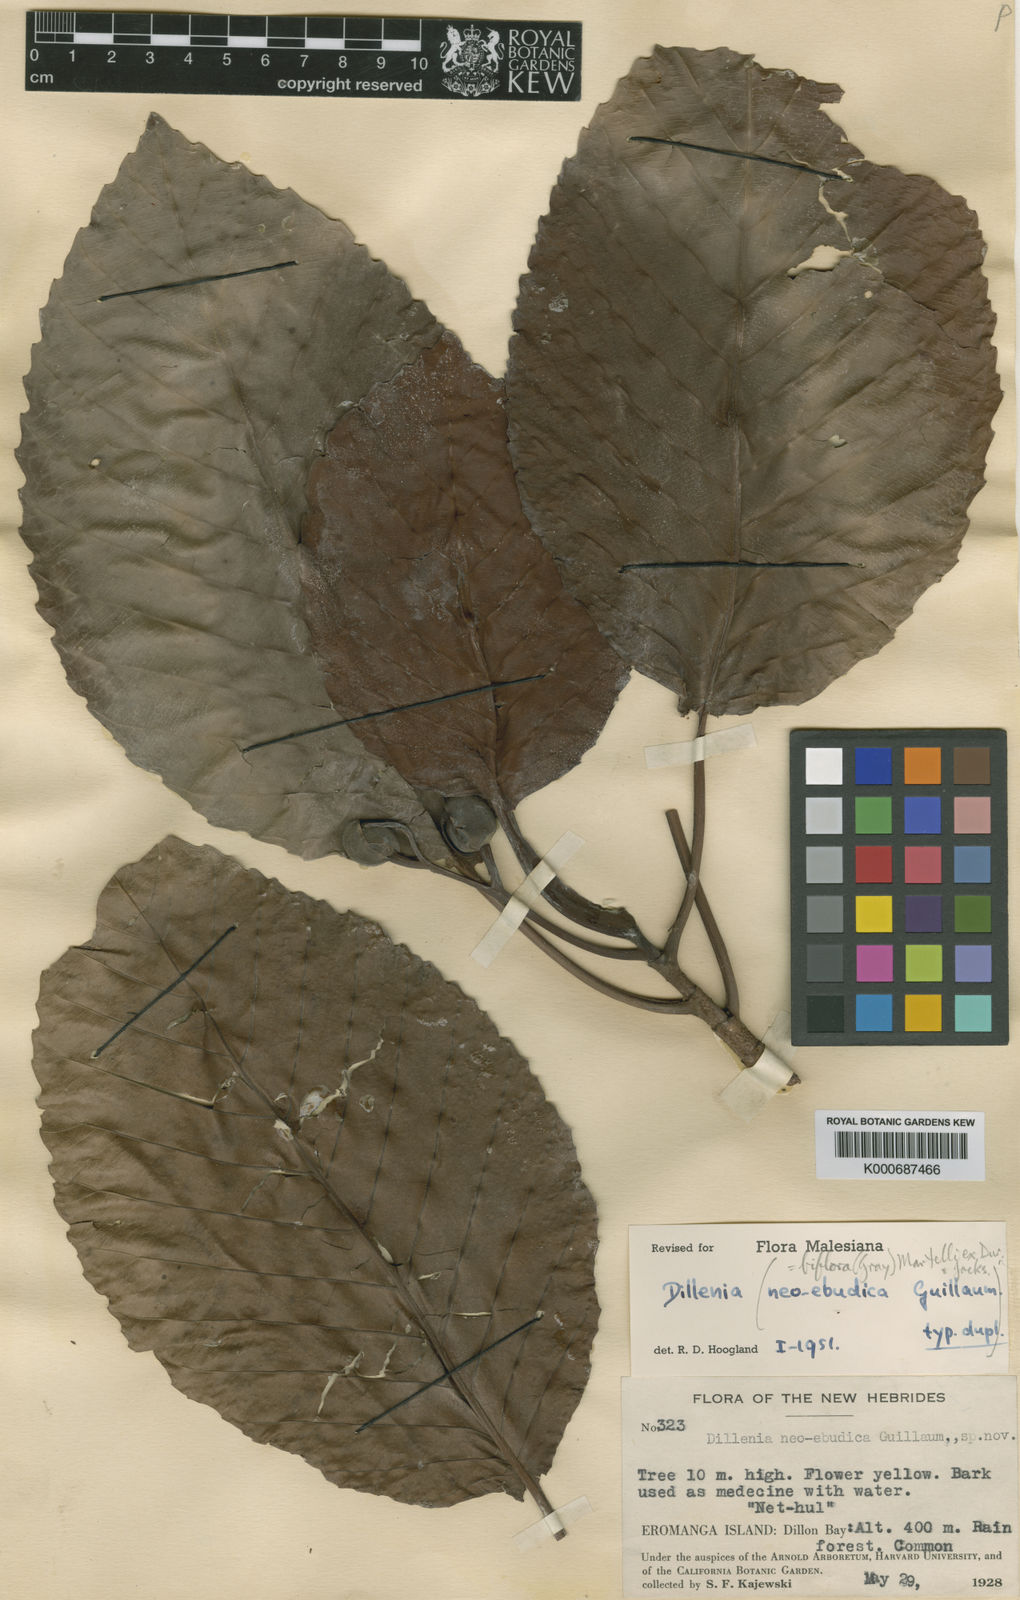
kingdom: Plantae
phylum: Tracheophyta
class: Magnoliopsida
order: Dilleniales
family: Dilleniaceae
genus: Dillenia
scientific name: Dillenia biflora
